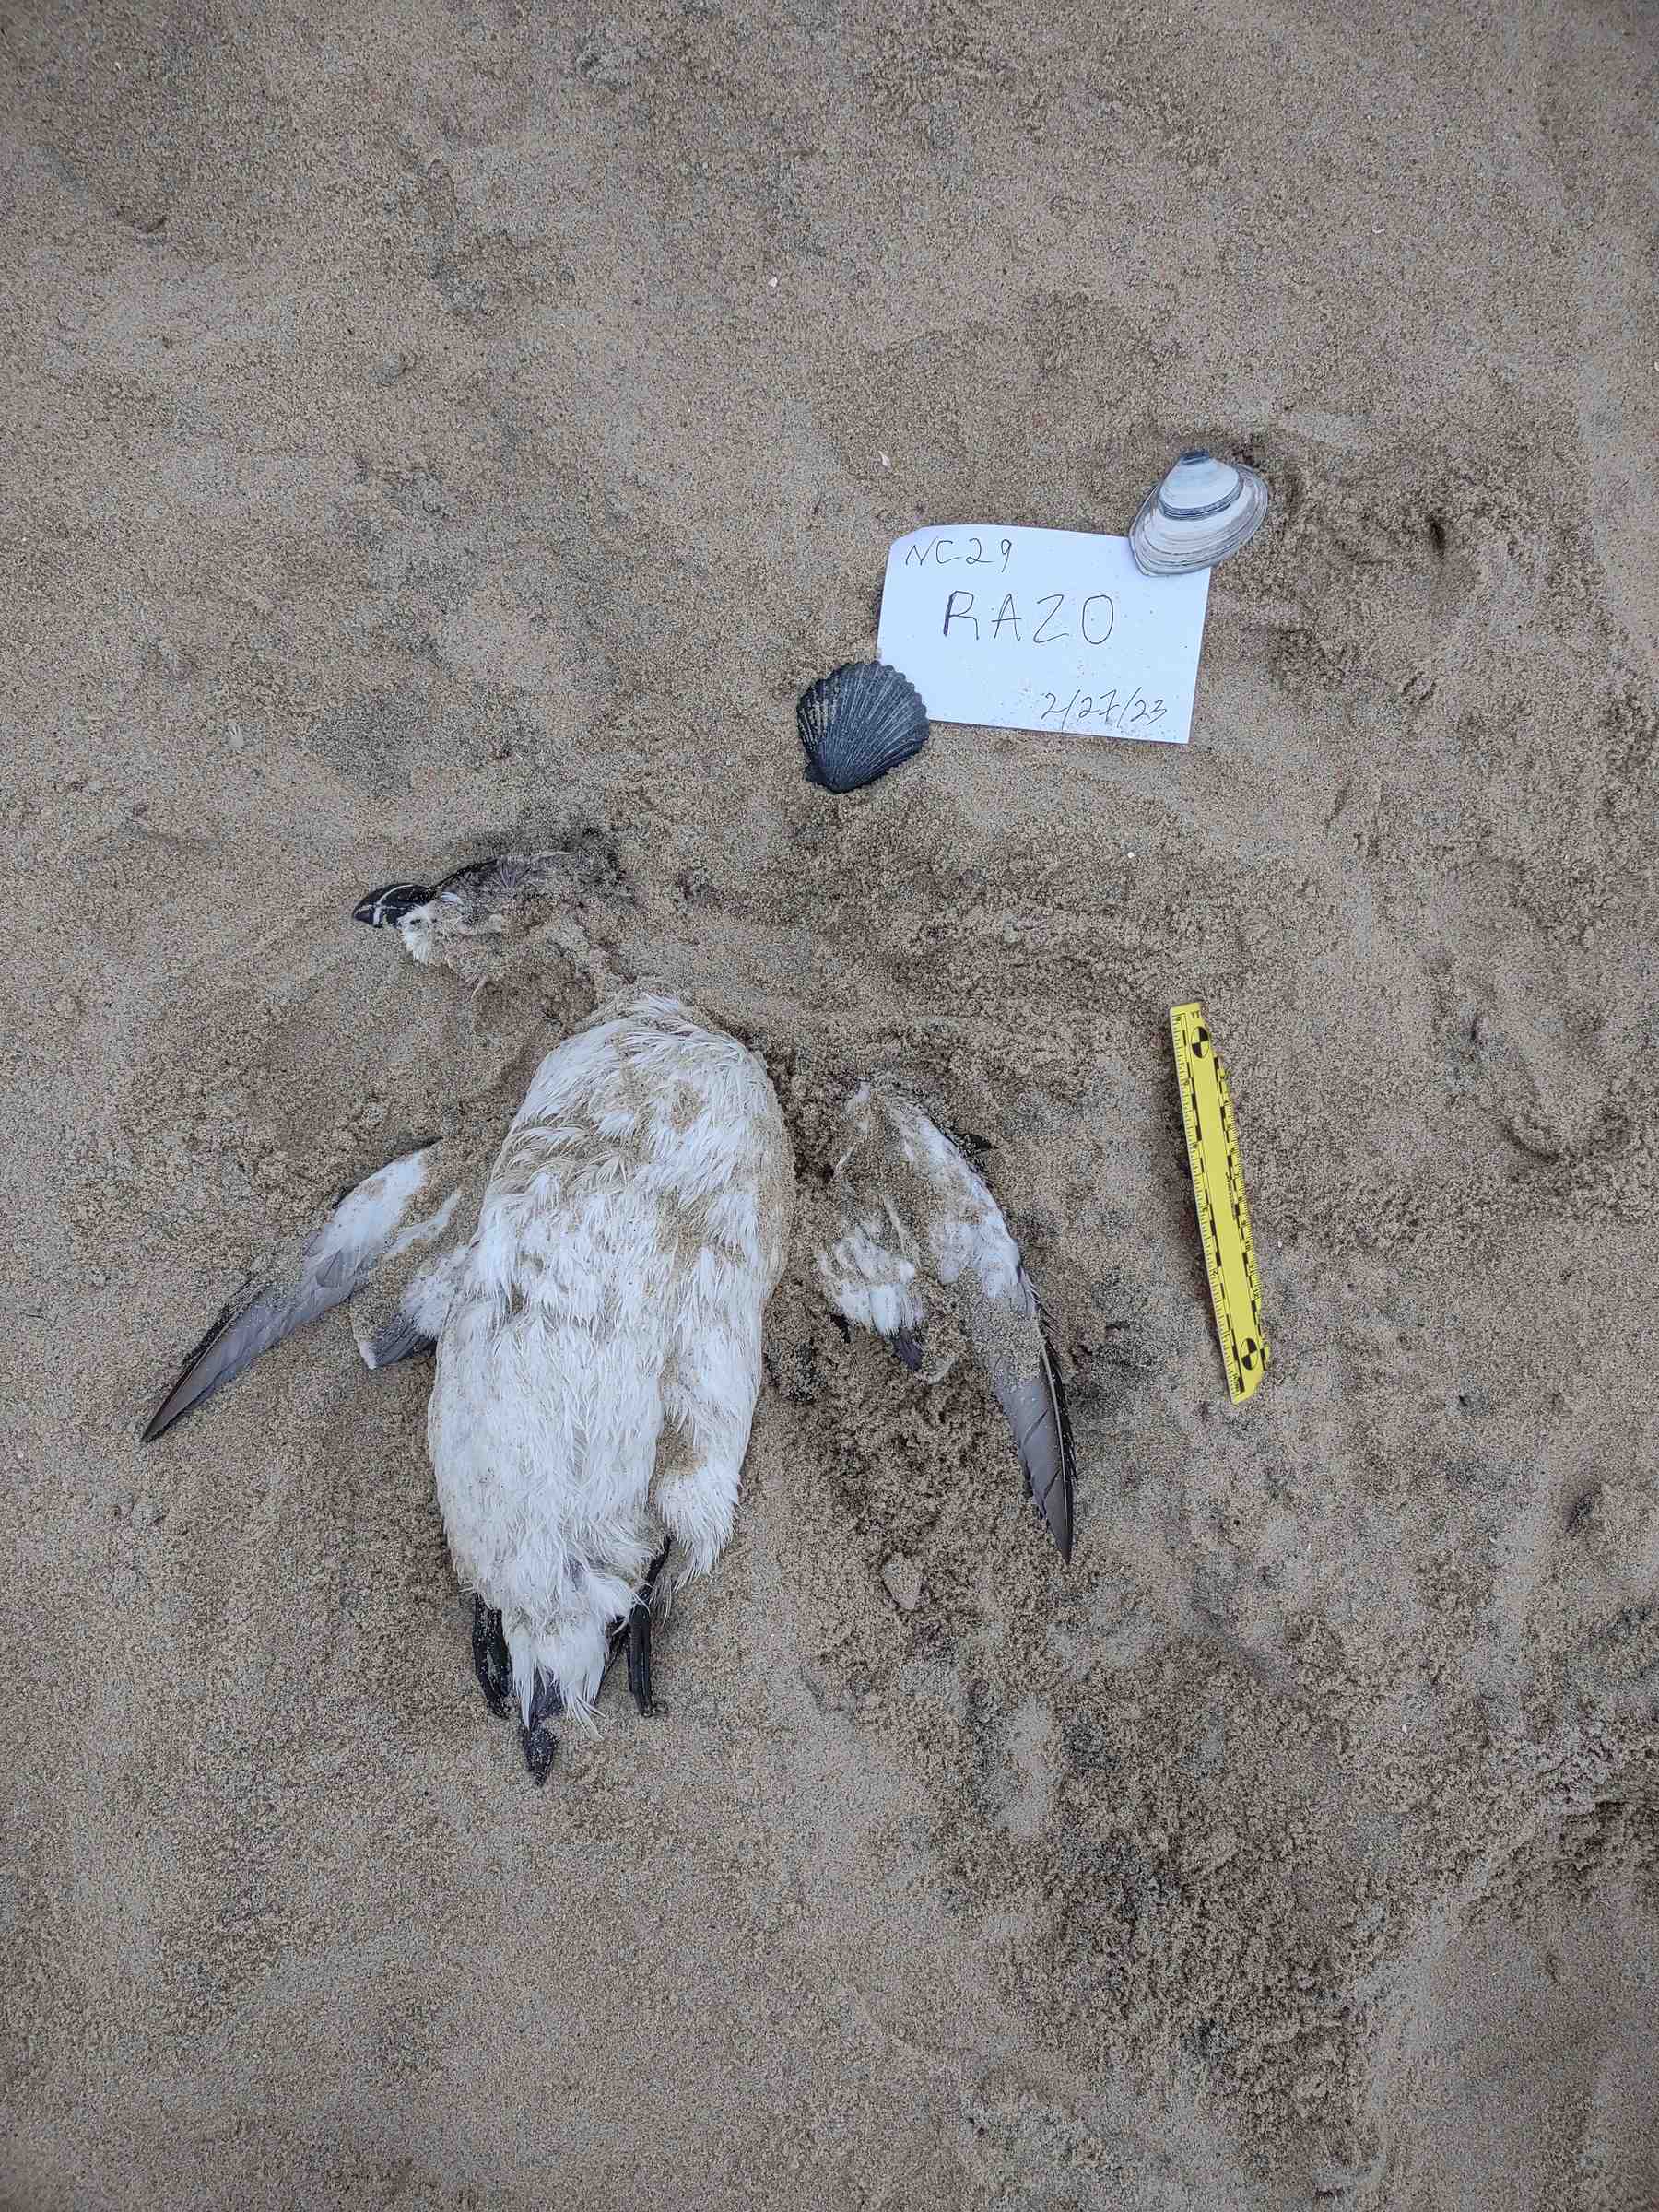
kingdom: Animalia
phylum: Chordata
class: Aves
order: Charadriiformes
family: Alcidae
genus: Alca
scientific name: Alca torda
